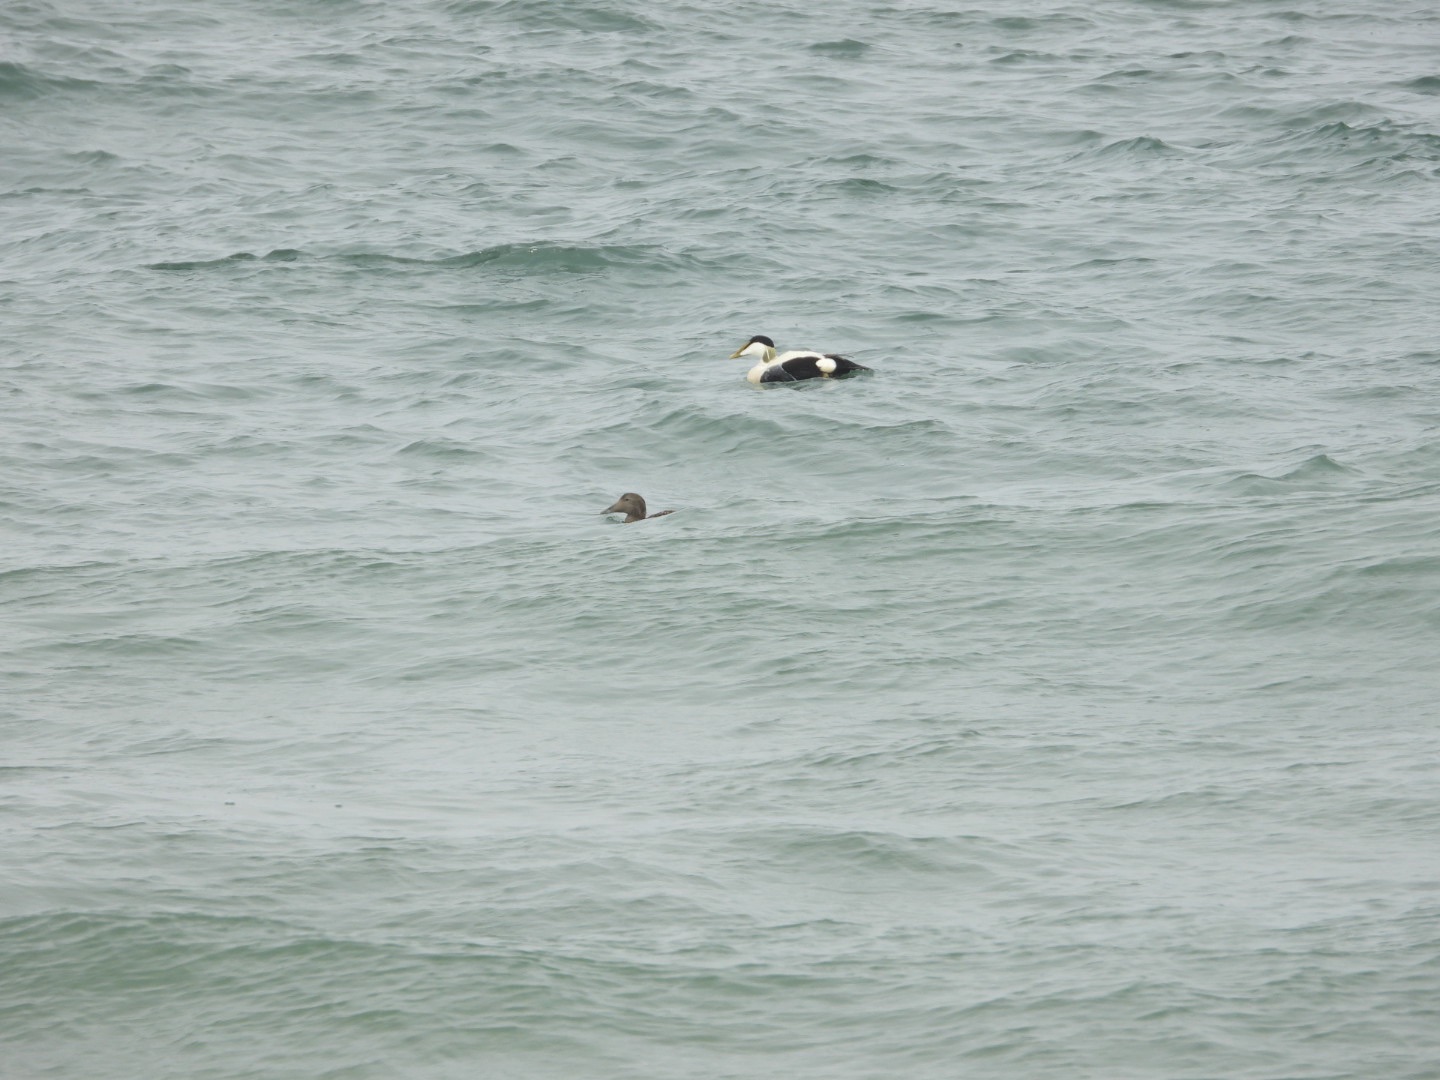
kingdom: Animalia
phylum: Chordata
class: Aves
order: Anseriformes
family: Anatidae
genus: Somateria
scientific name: Somateria mollissima
